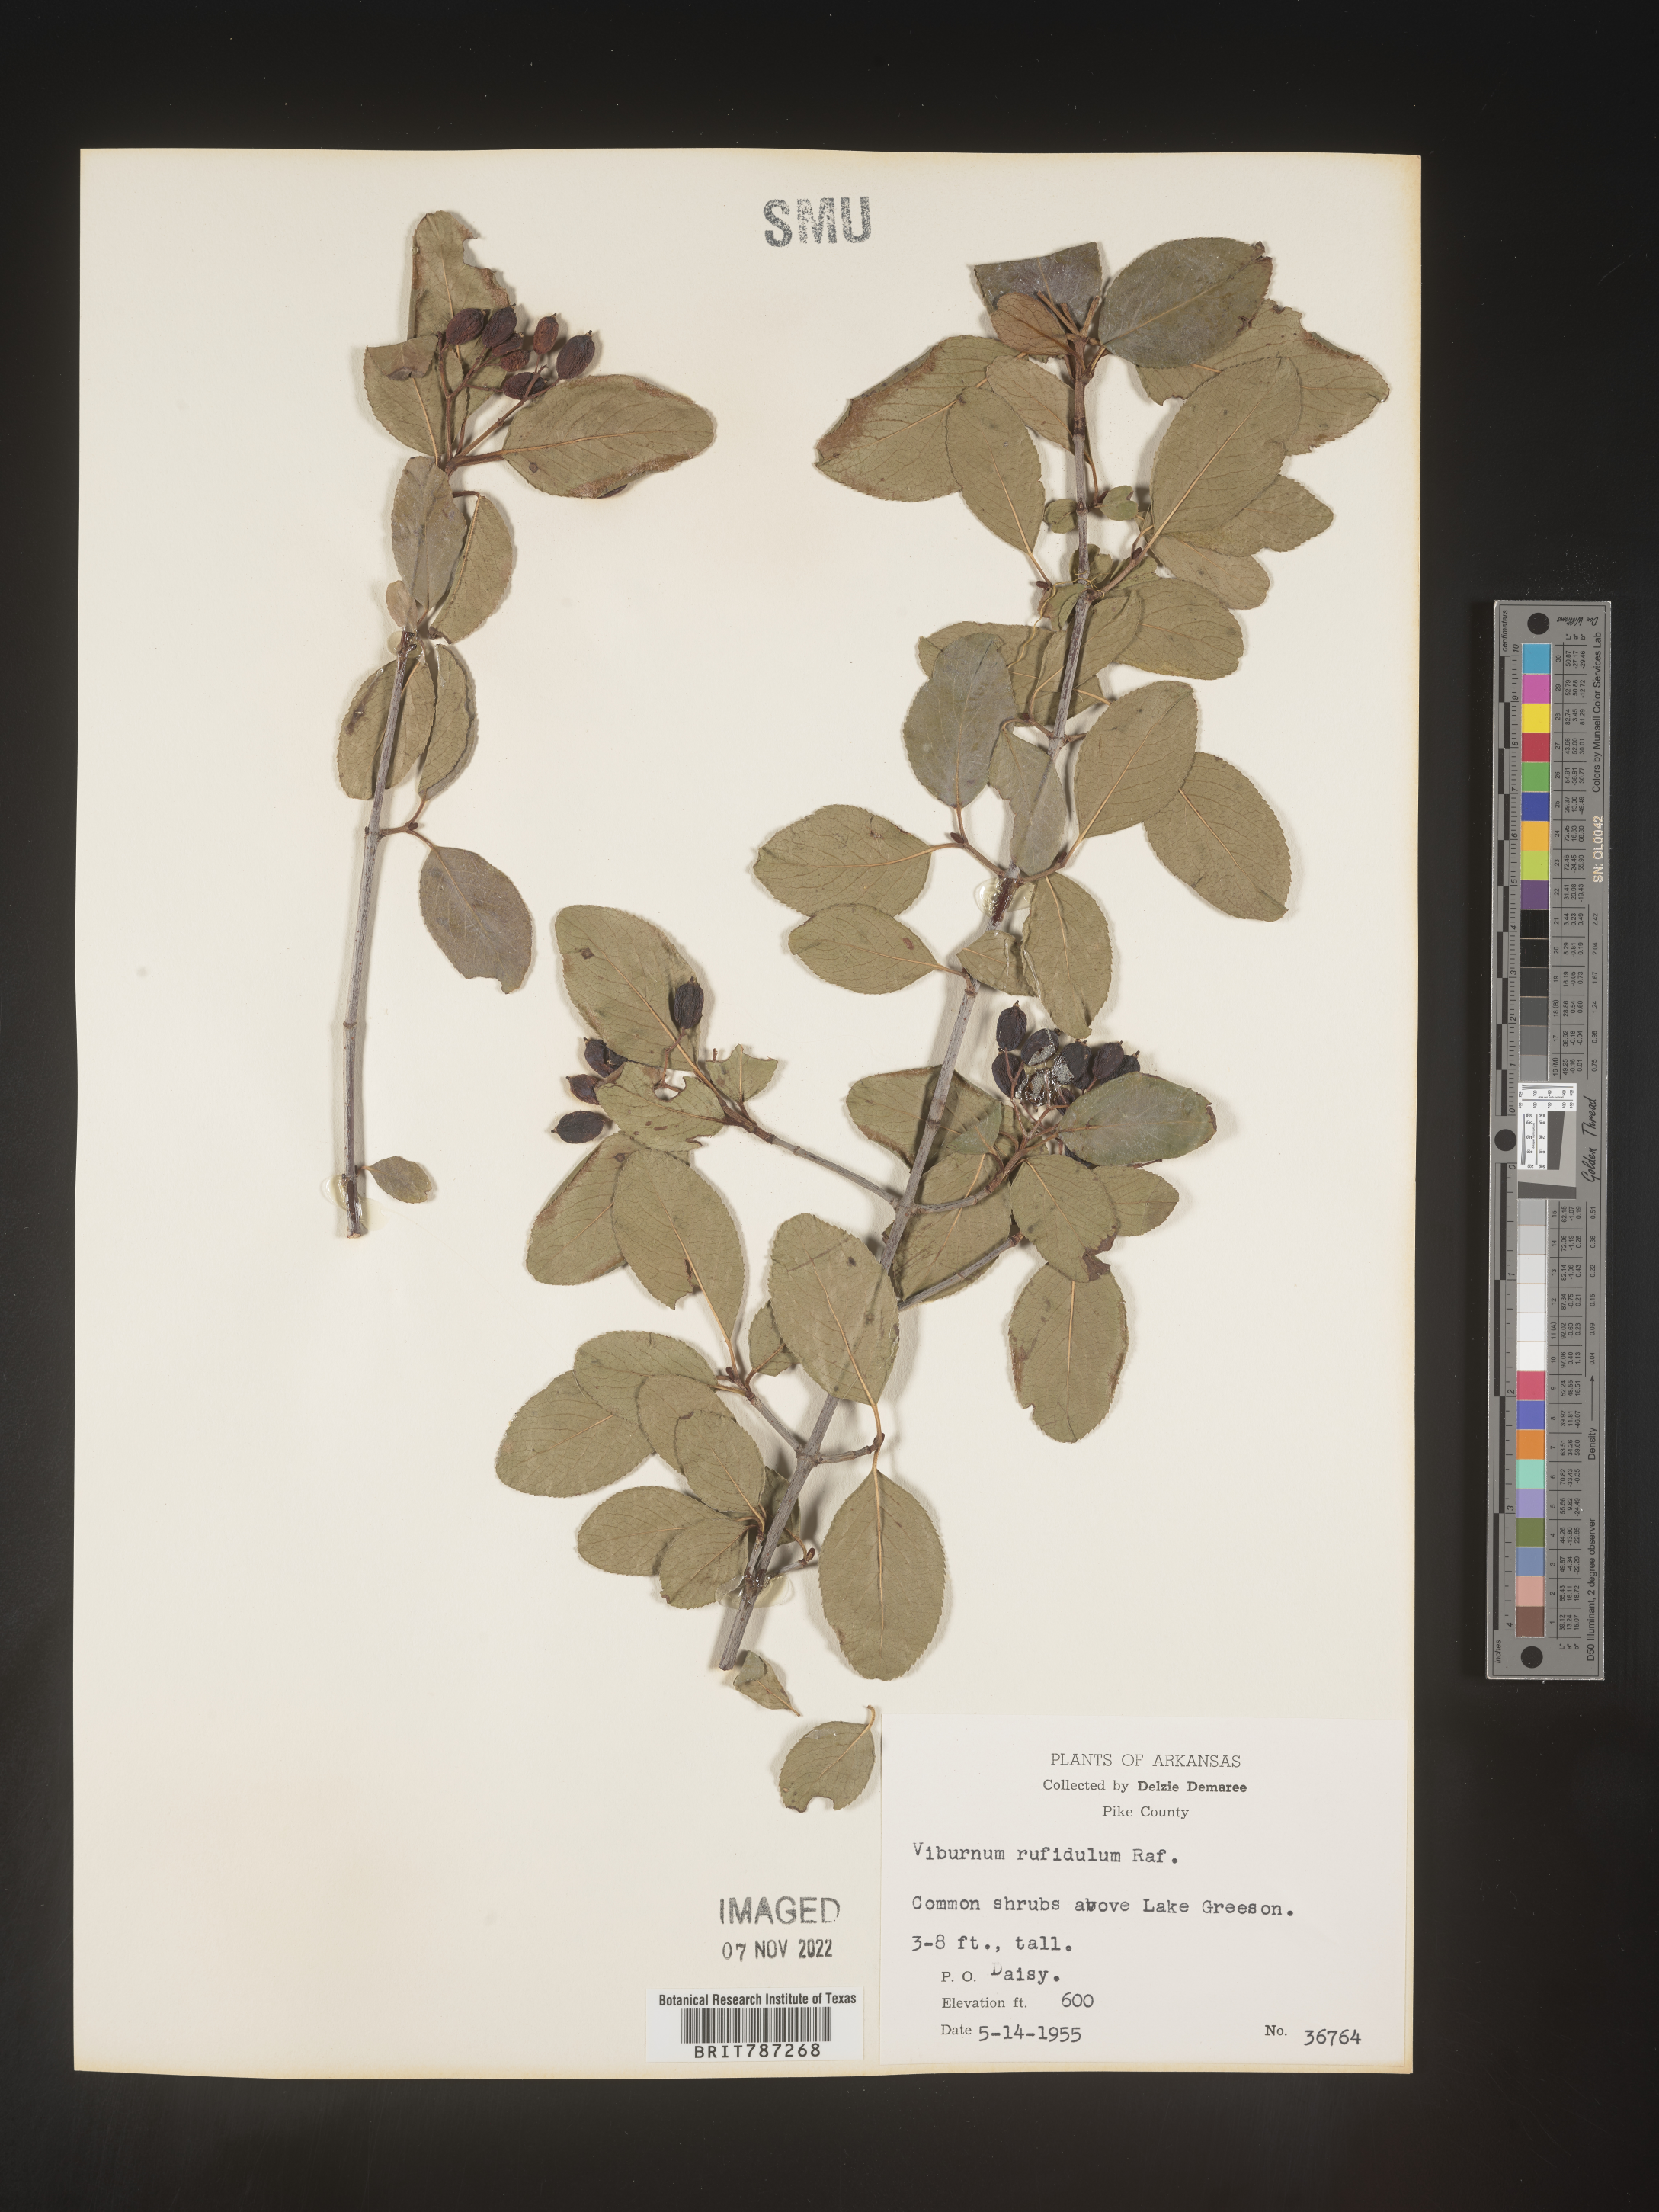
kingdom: Plantae
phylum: Tracheophyta
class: Magnoliopsida
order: Dipsacales
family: Viburnaceae
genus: Viburnum
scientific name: Viburnum rufidulum
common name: Blue haw
